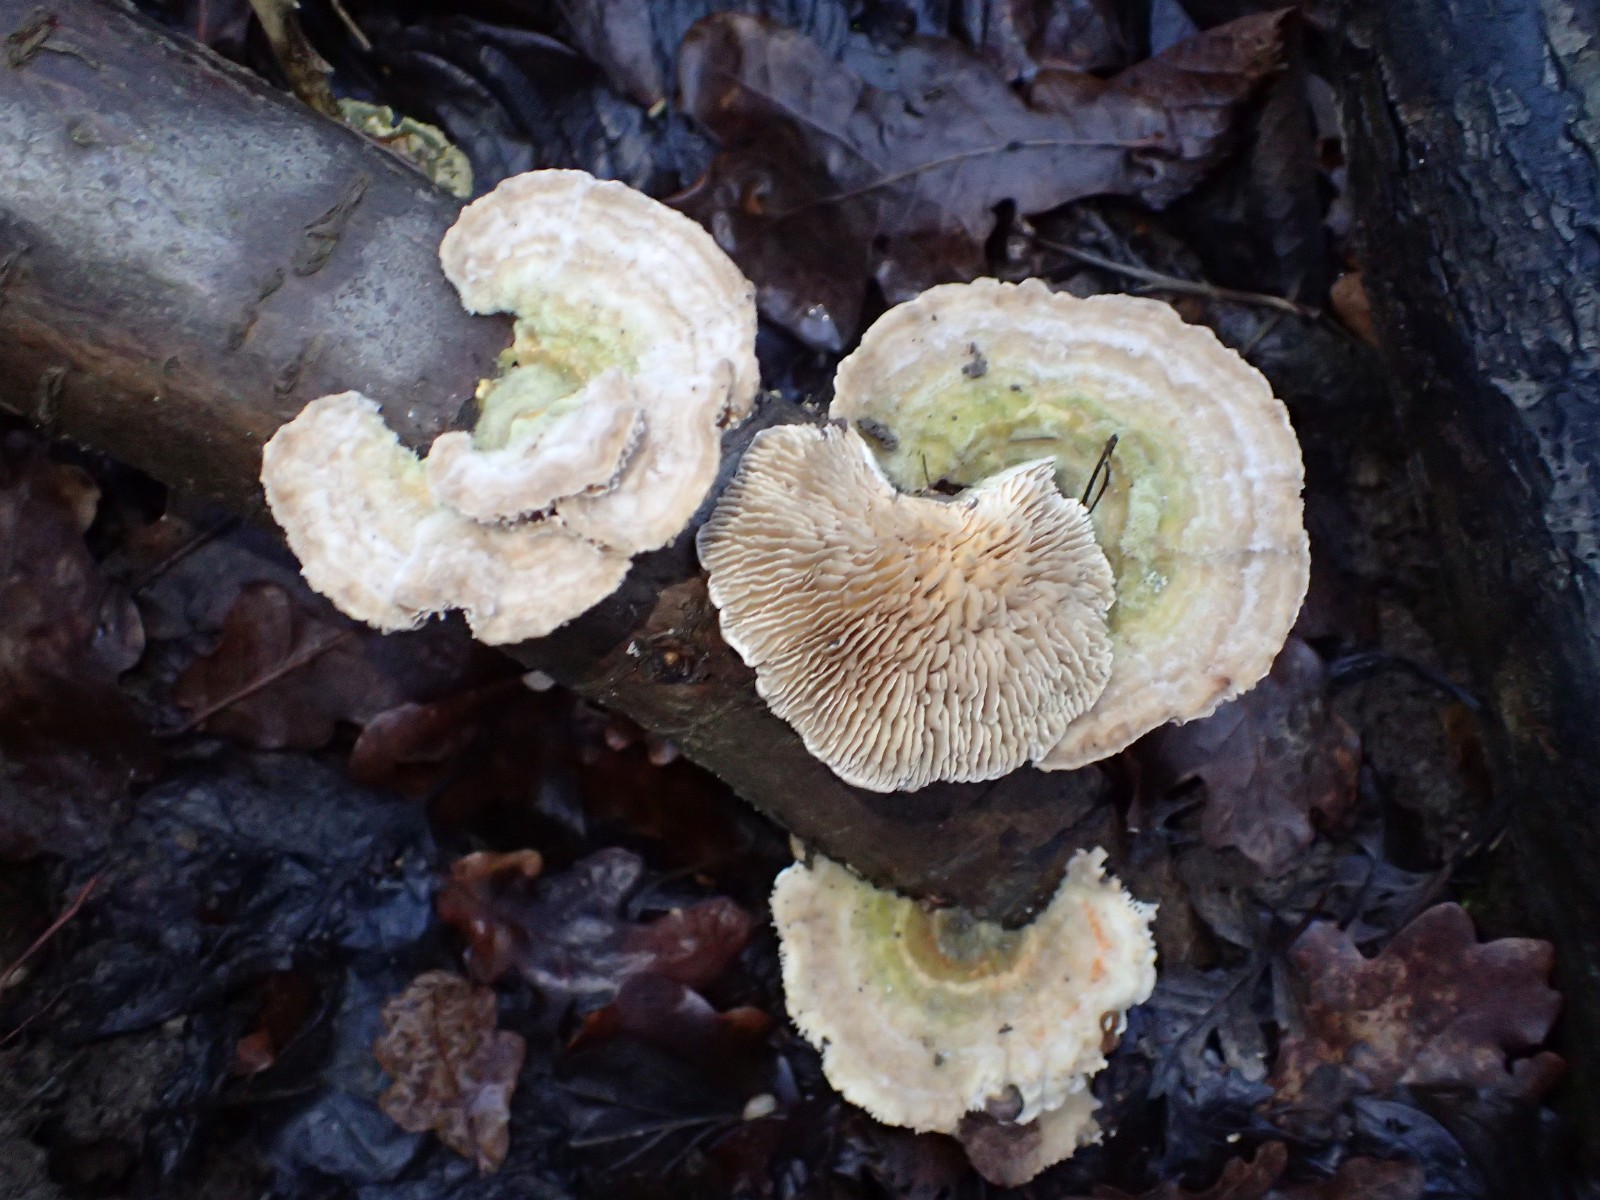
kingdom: Fungi
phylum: Basidiomycota
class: Agaricomycetes
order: Polyporales
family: Polyporaceae
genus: Lenzites
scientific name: Lenzites betulinus
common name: birke-læderporesvamp
